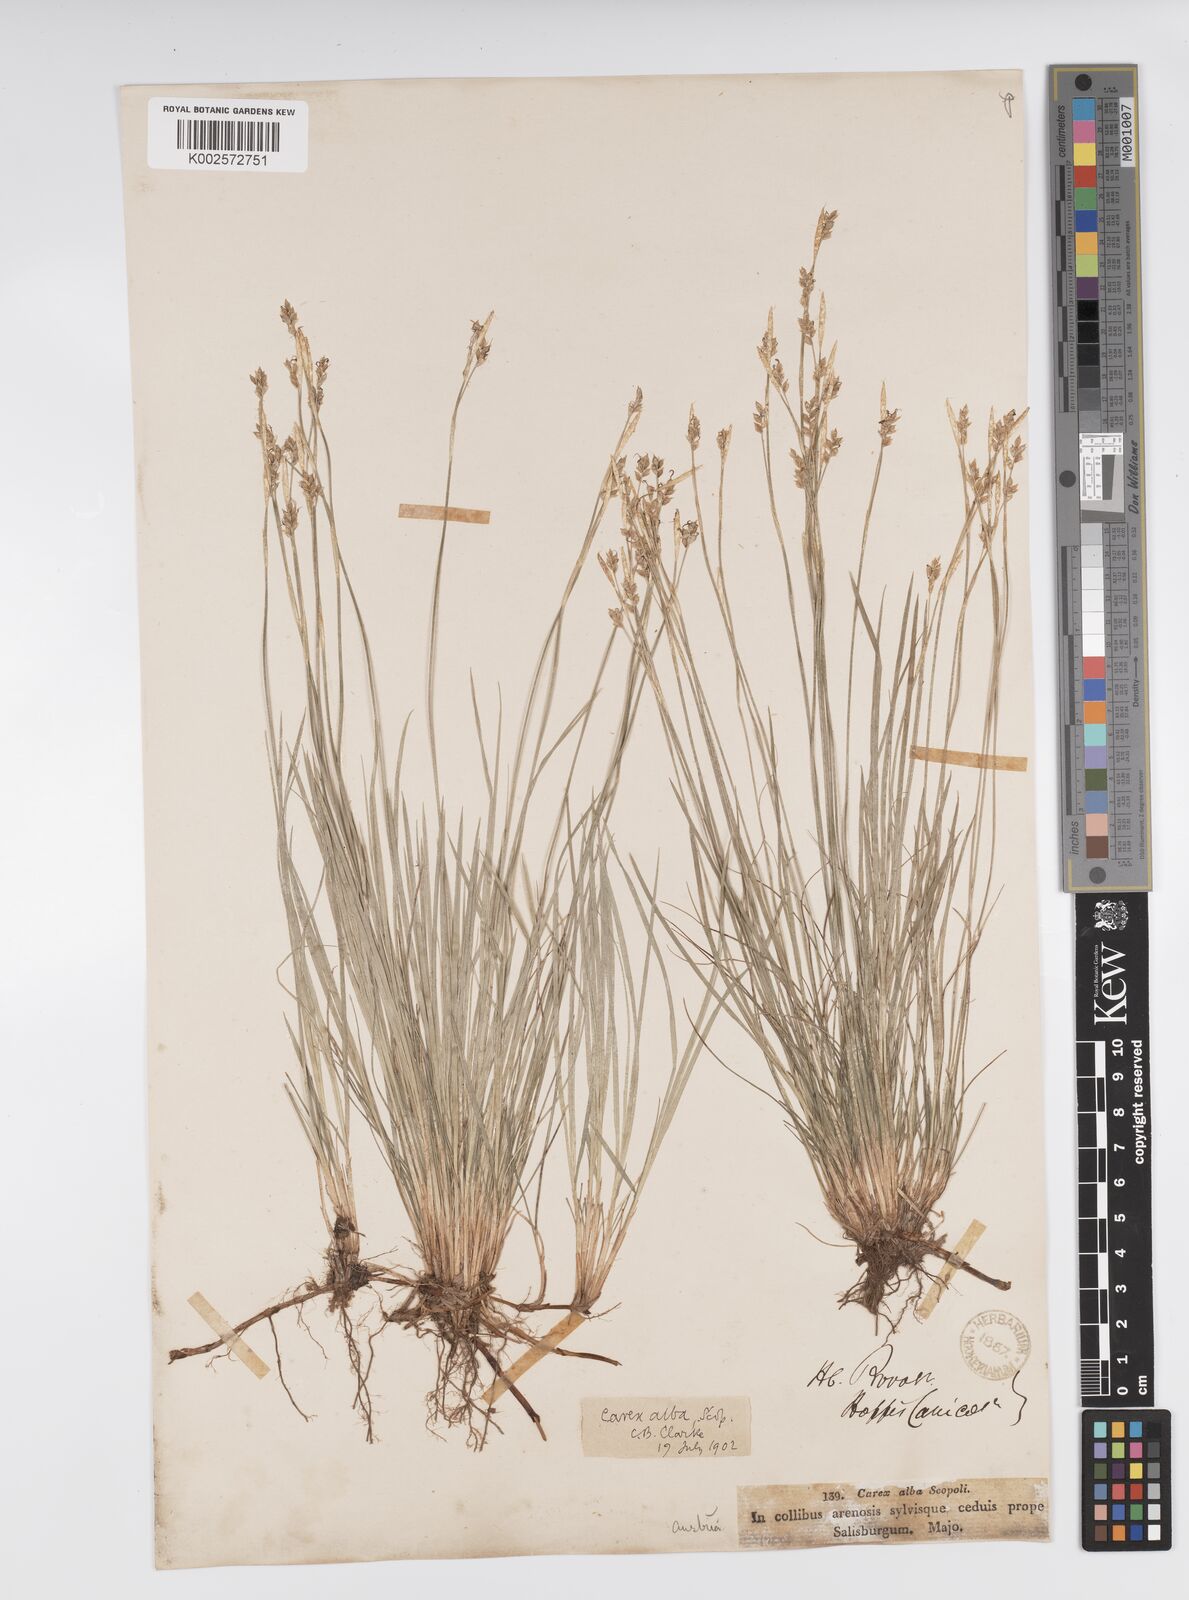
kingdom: Plantae
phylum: Tracheophyta
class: Liliopsida
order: Poales
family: Cyperaceae
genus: Carex
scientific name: Carex alba
